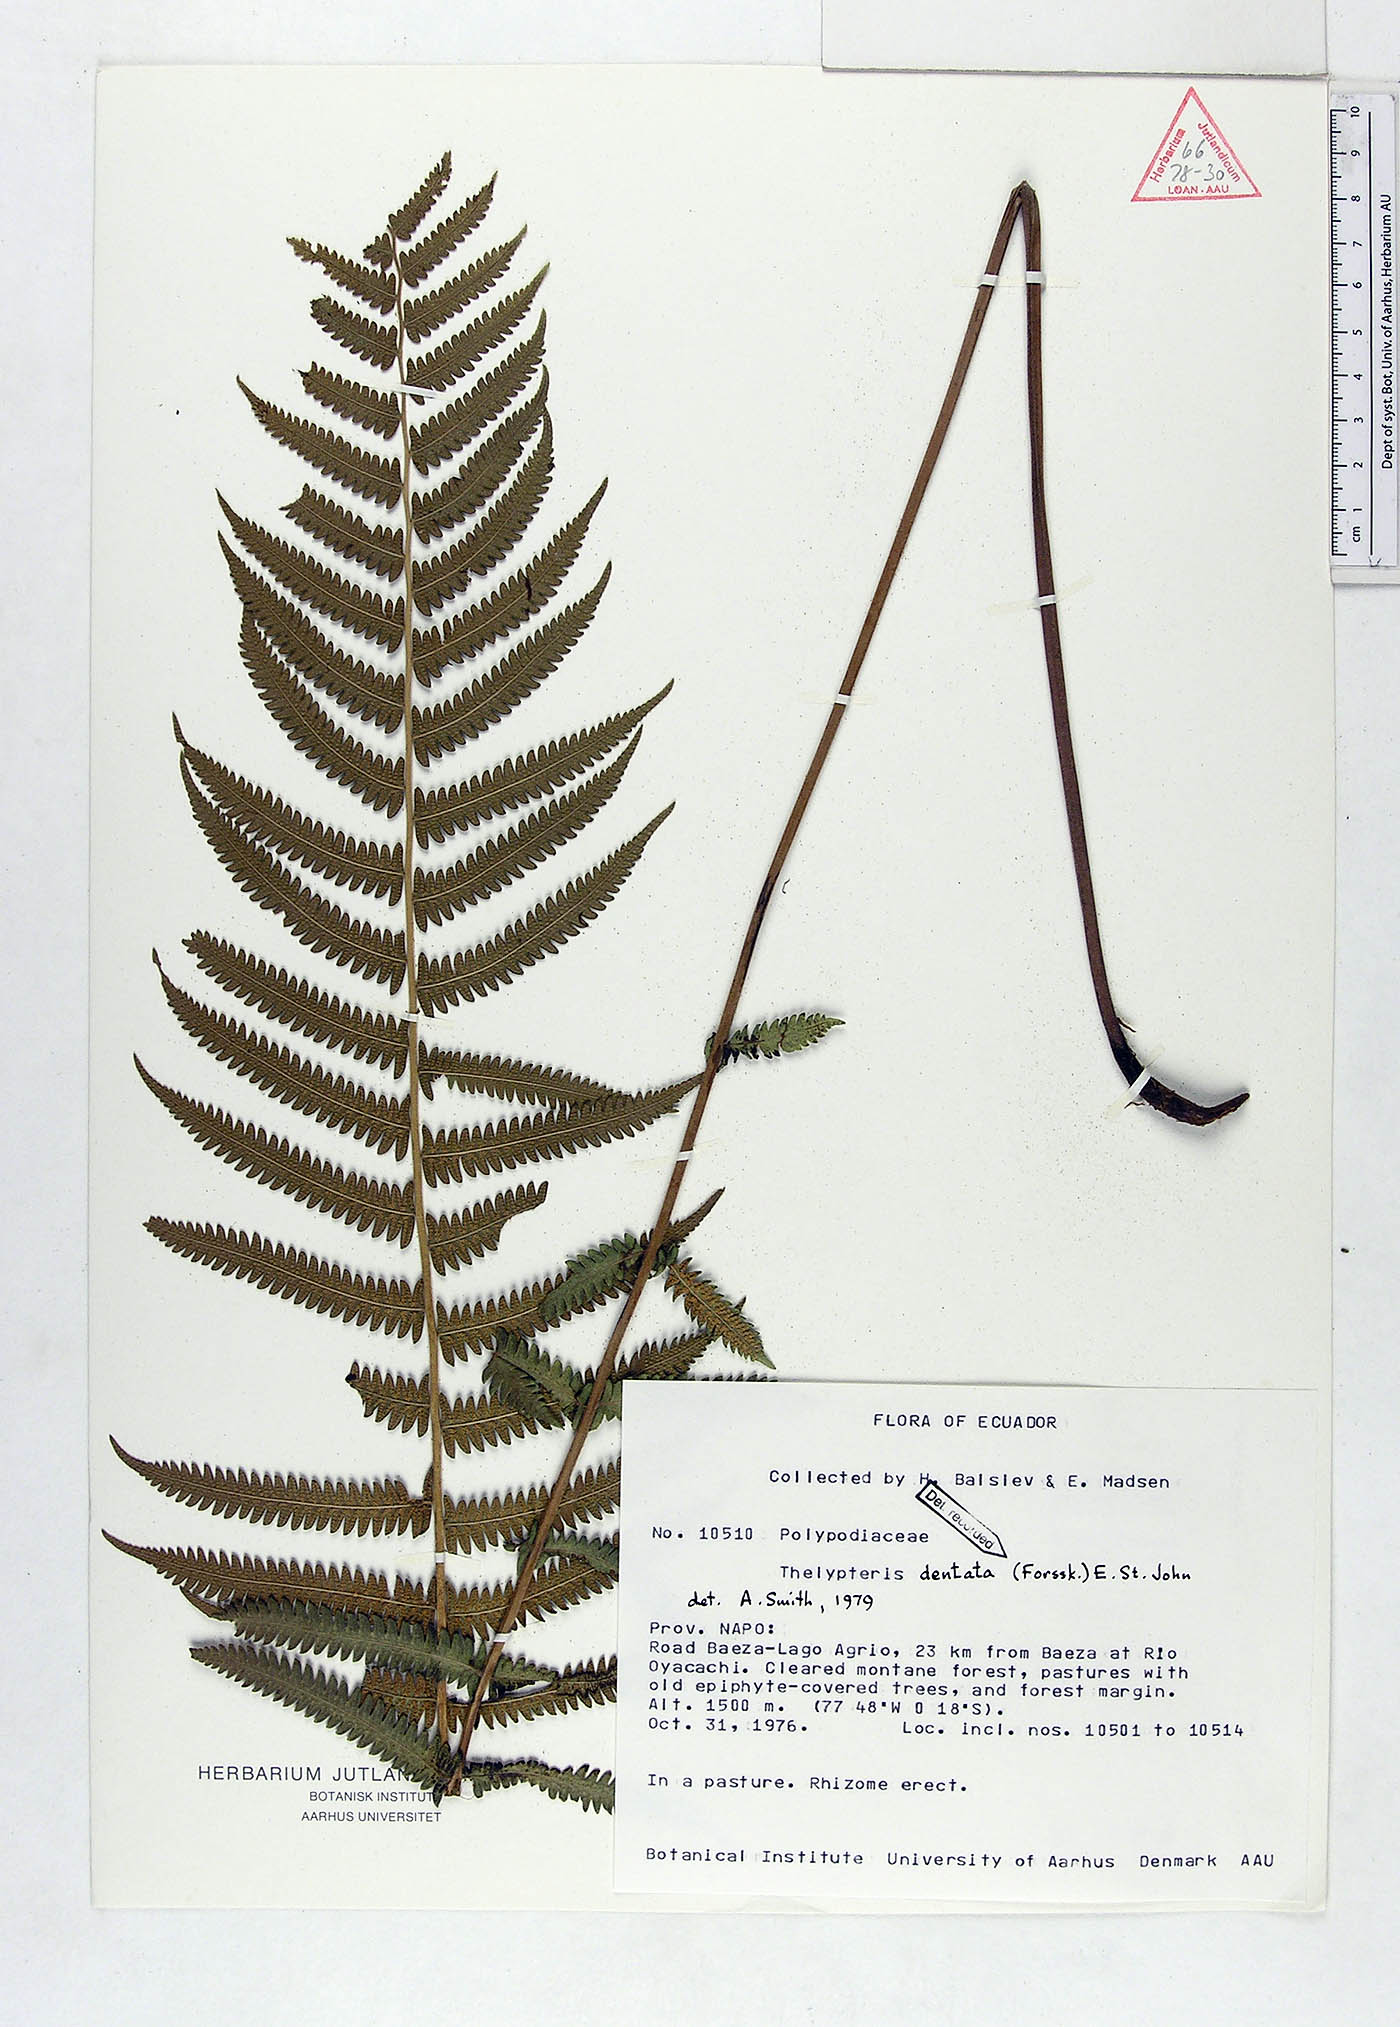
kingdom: Plantae
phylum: Tracheophyta
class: Polypodiopsida
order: Polypodiales
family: Thelypteridaceae
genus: Christella
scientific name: Christella dentata
